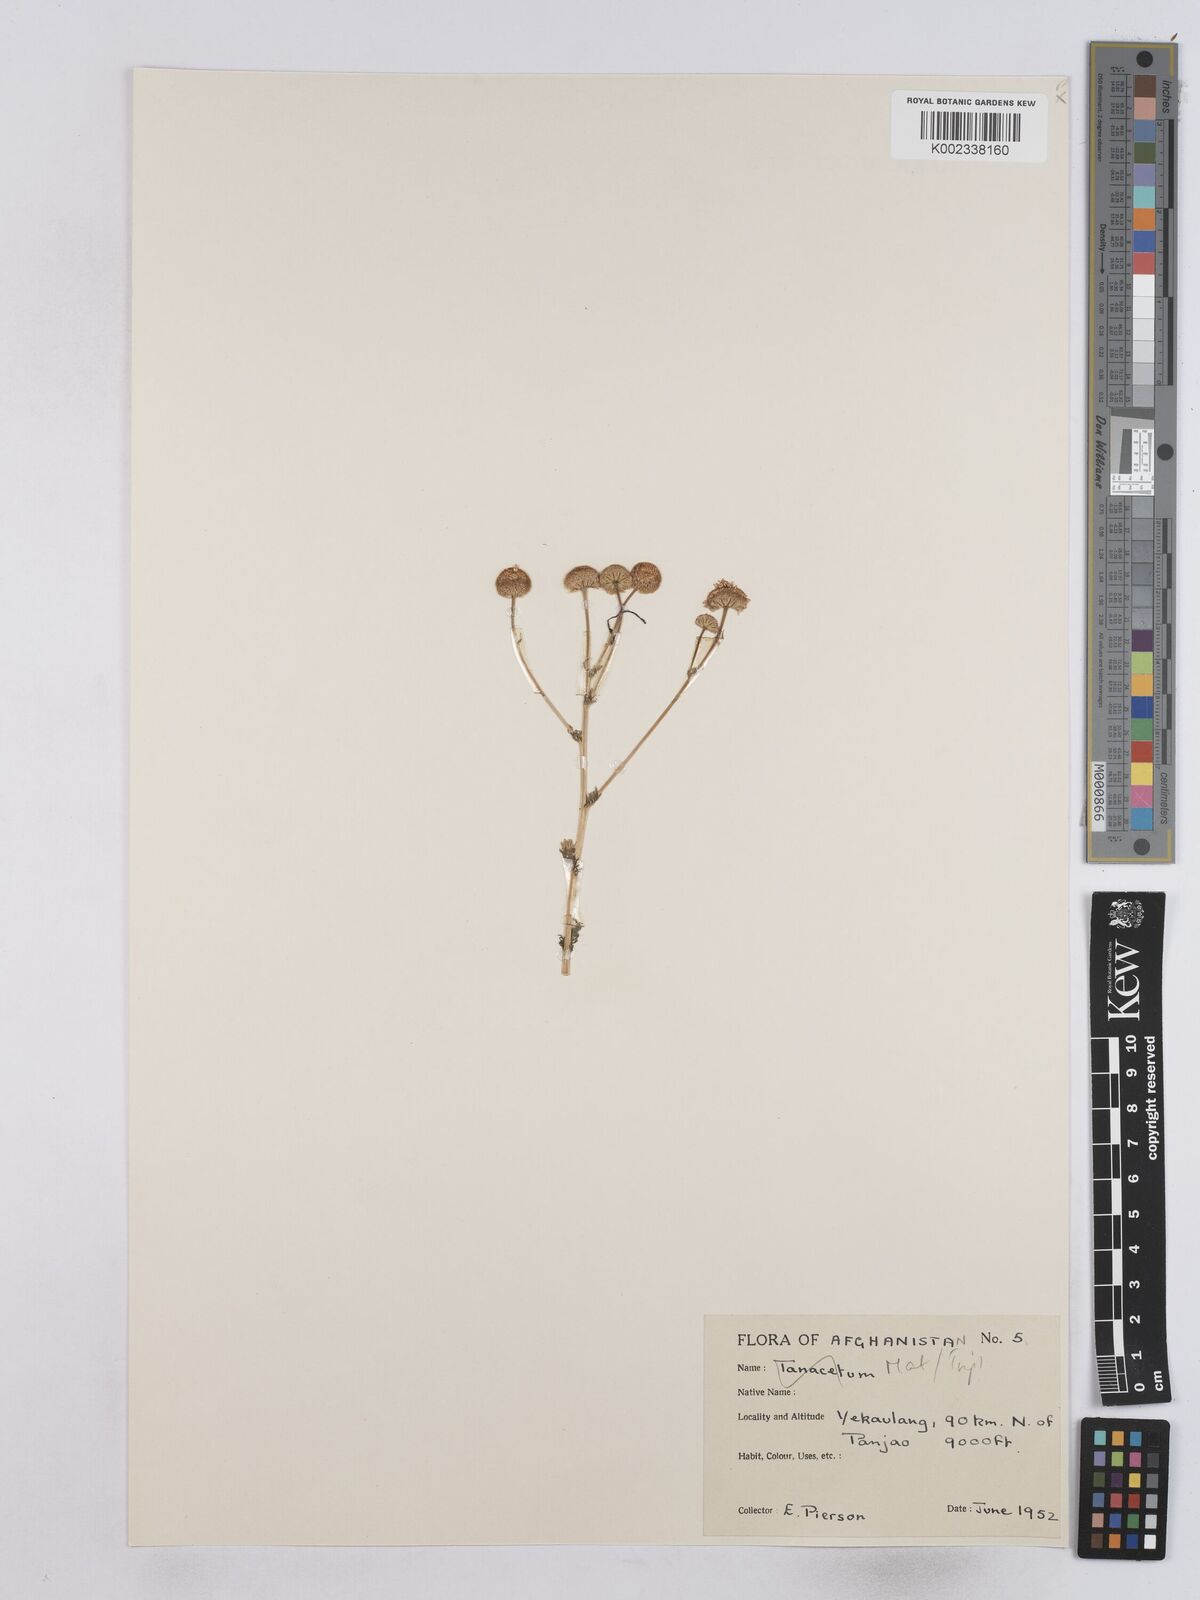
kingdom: Plantae
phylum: Tracheophyta
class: Magnoliopsida
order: Asterales
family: Asteraceae
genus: Matricaria
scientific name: Matricaria
